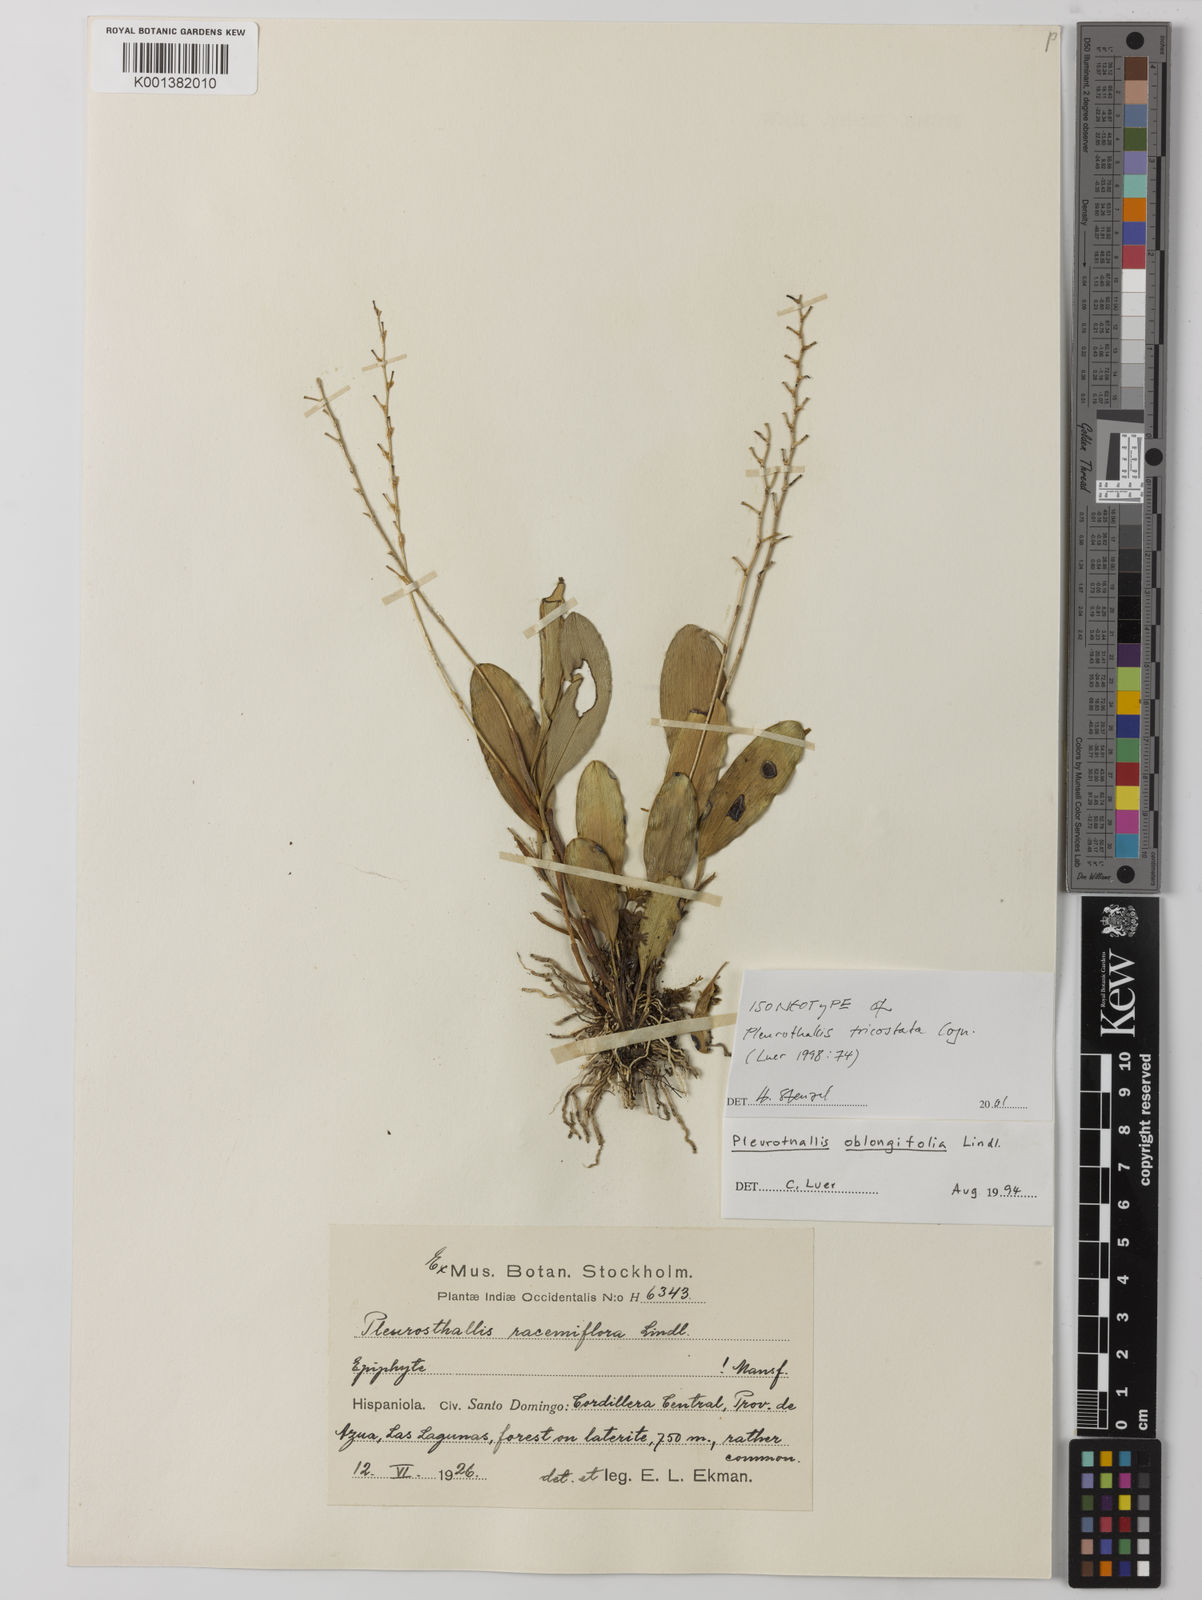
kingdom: Plantae
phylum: Tracheophyta
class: Liliopsida
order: Asparagales
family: Orchidaceae
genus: Pleurothallis
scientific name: Pleurothallis quadrifida
